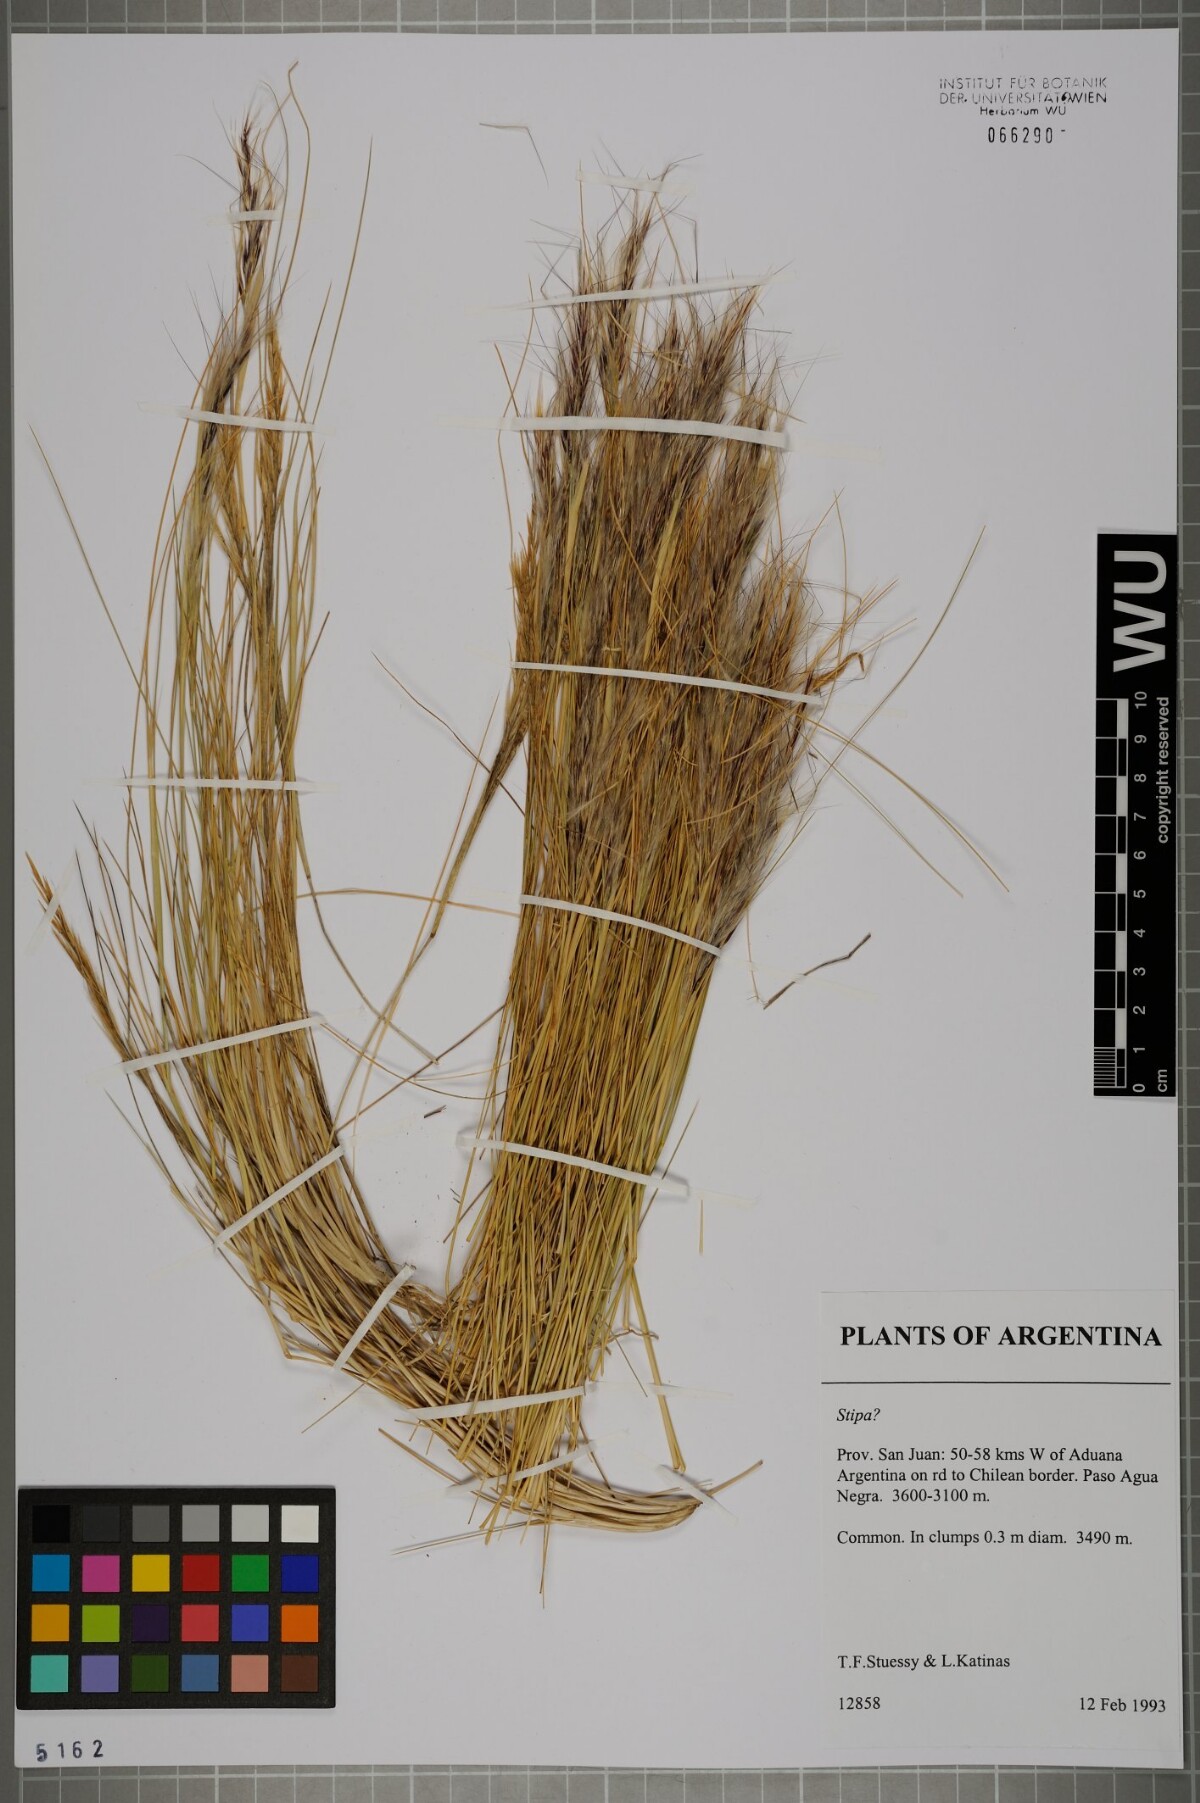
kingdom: Plantae
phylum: Tracheophyta
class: Liliopsida
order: Poales
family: Poaceae
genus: Stipa
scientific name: Stipa
